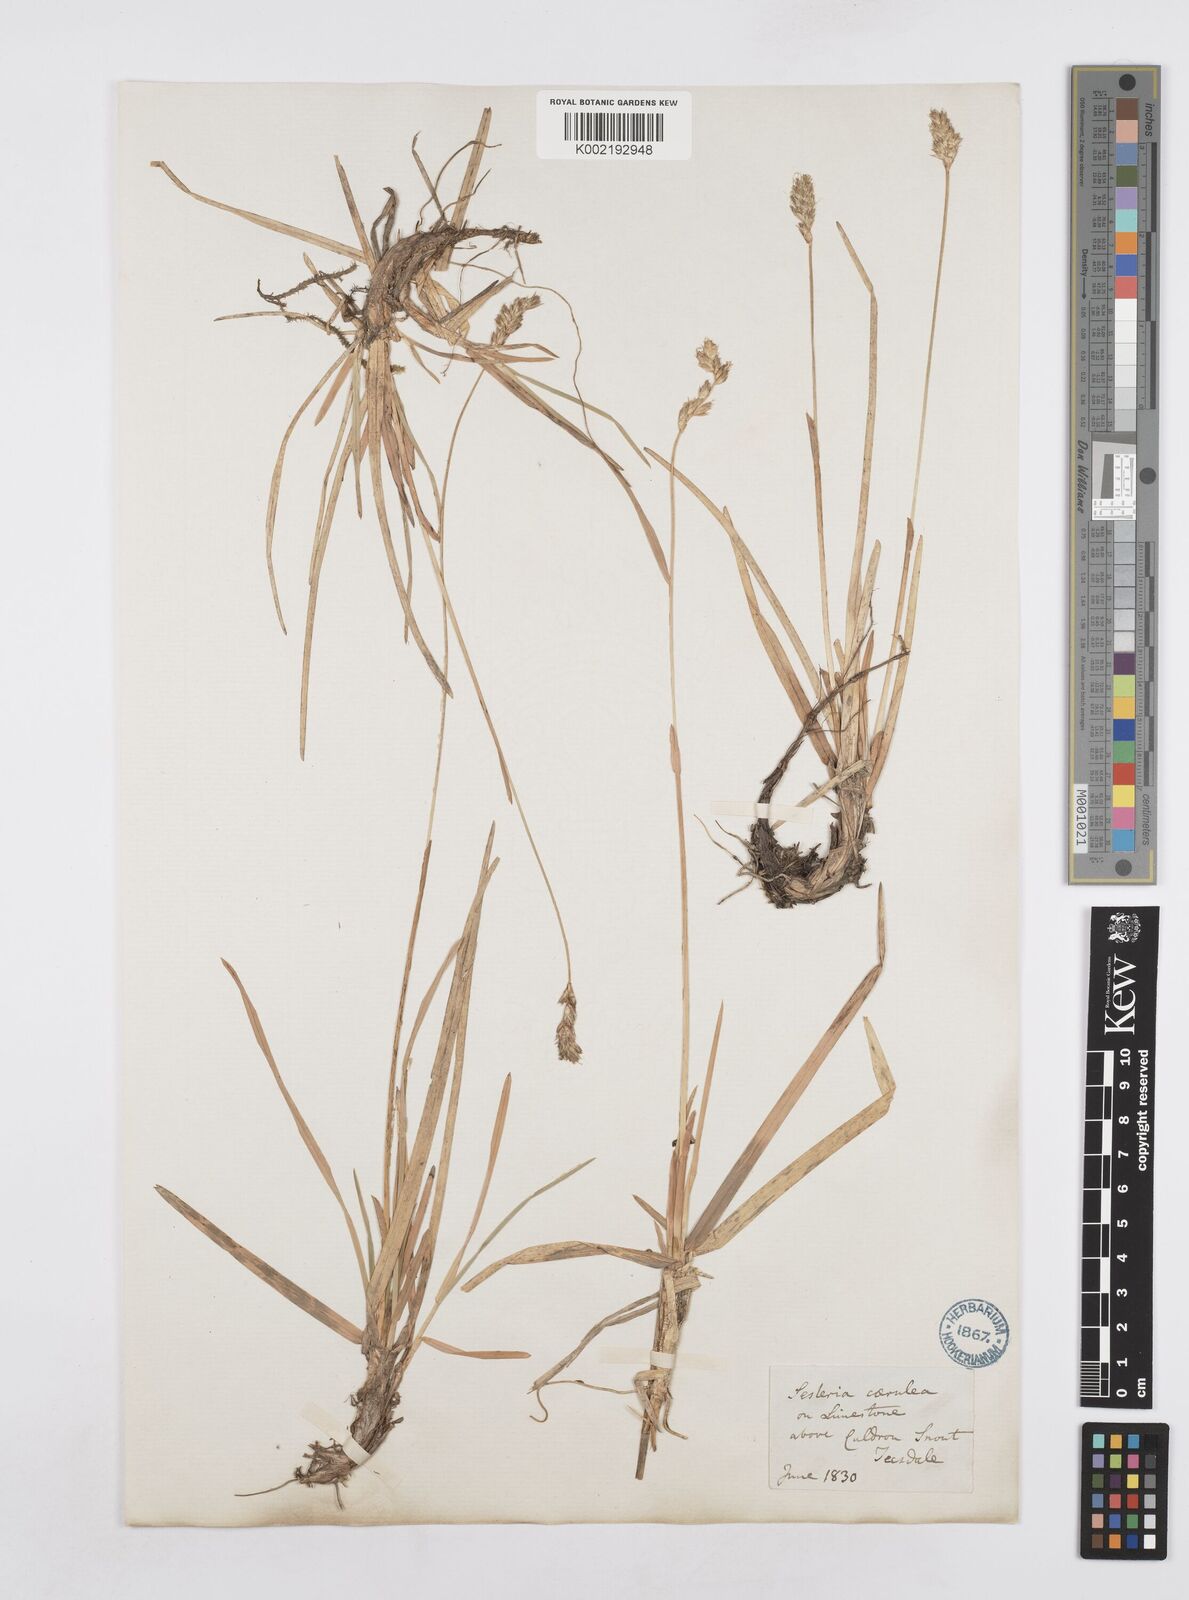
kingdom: Plantae
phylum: Tracheophyta
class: Liliopsida
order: Poales
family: Poaceae
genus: Sesleria
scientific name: Sesleria caerulea
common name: Blue moor-grass
